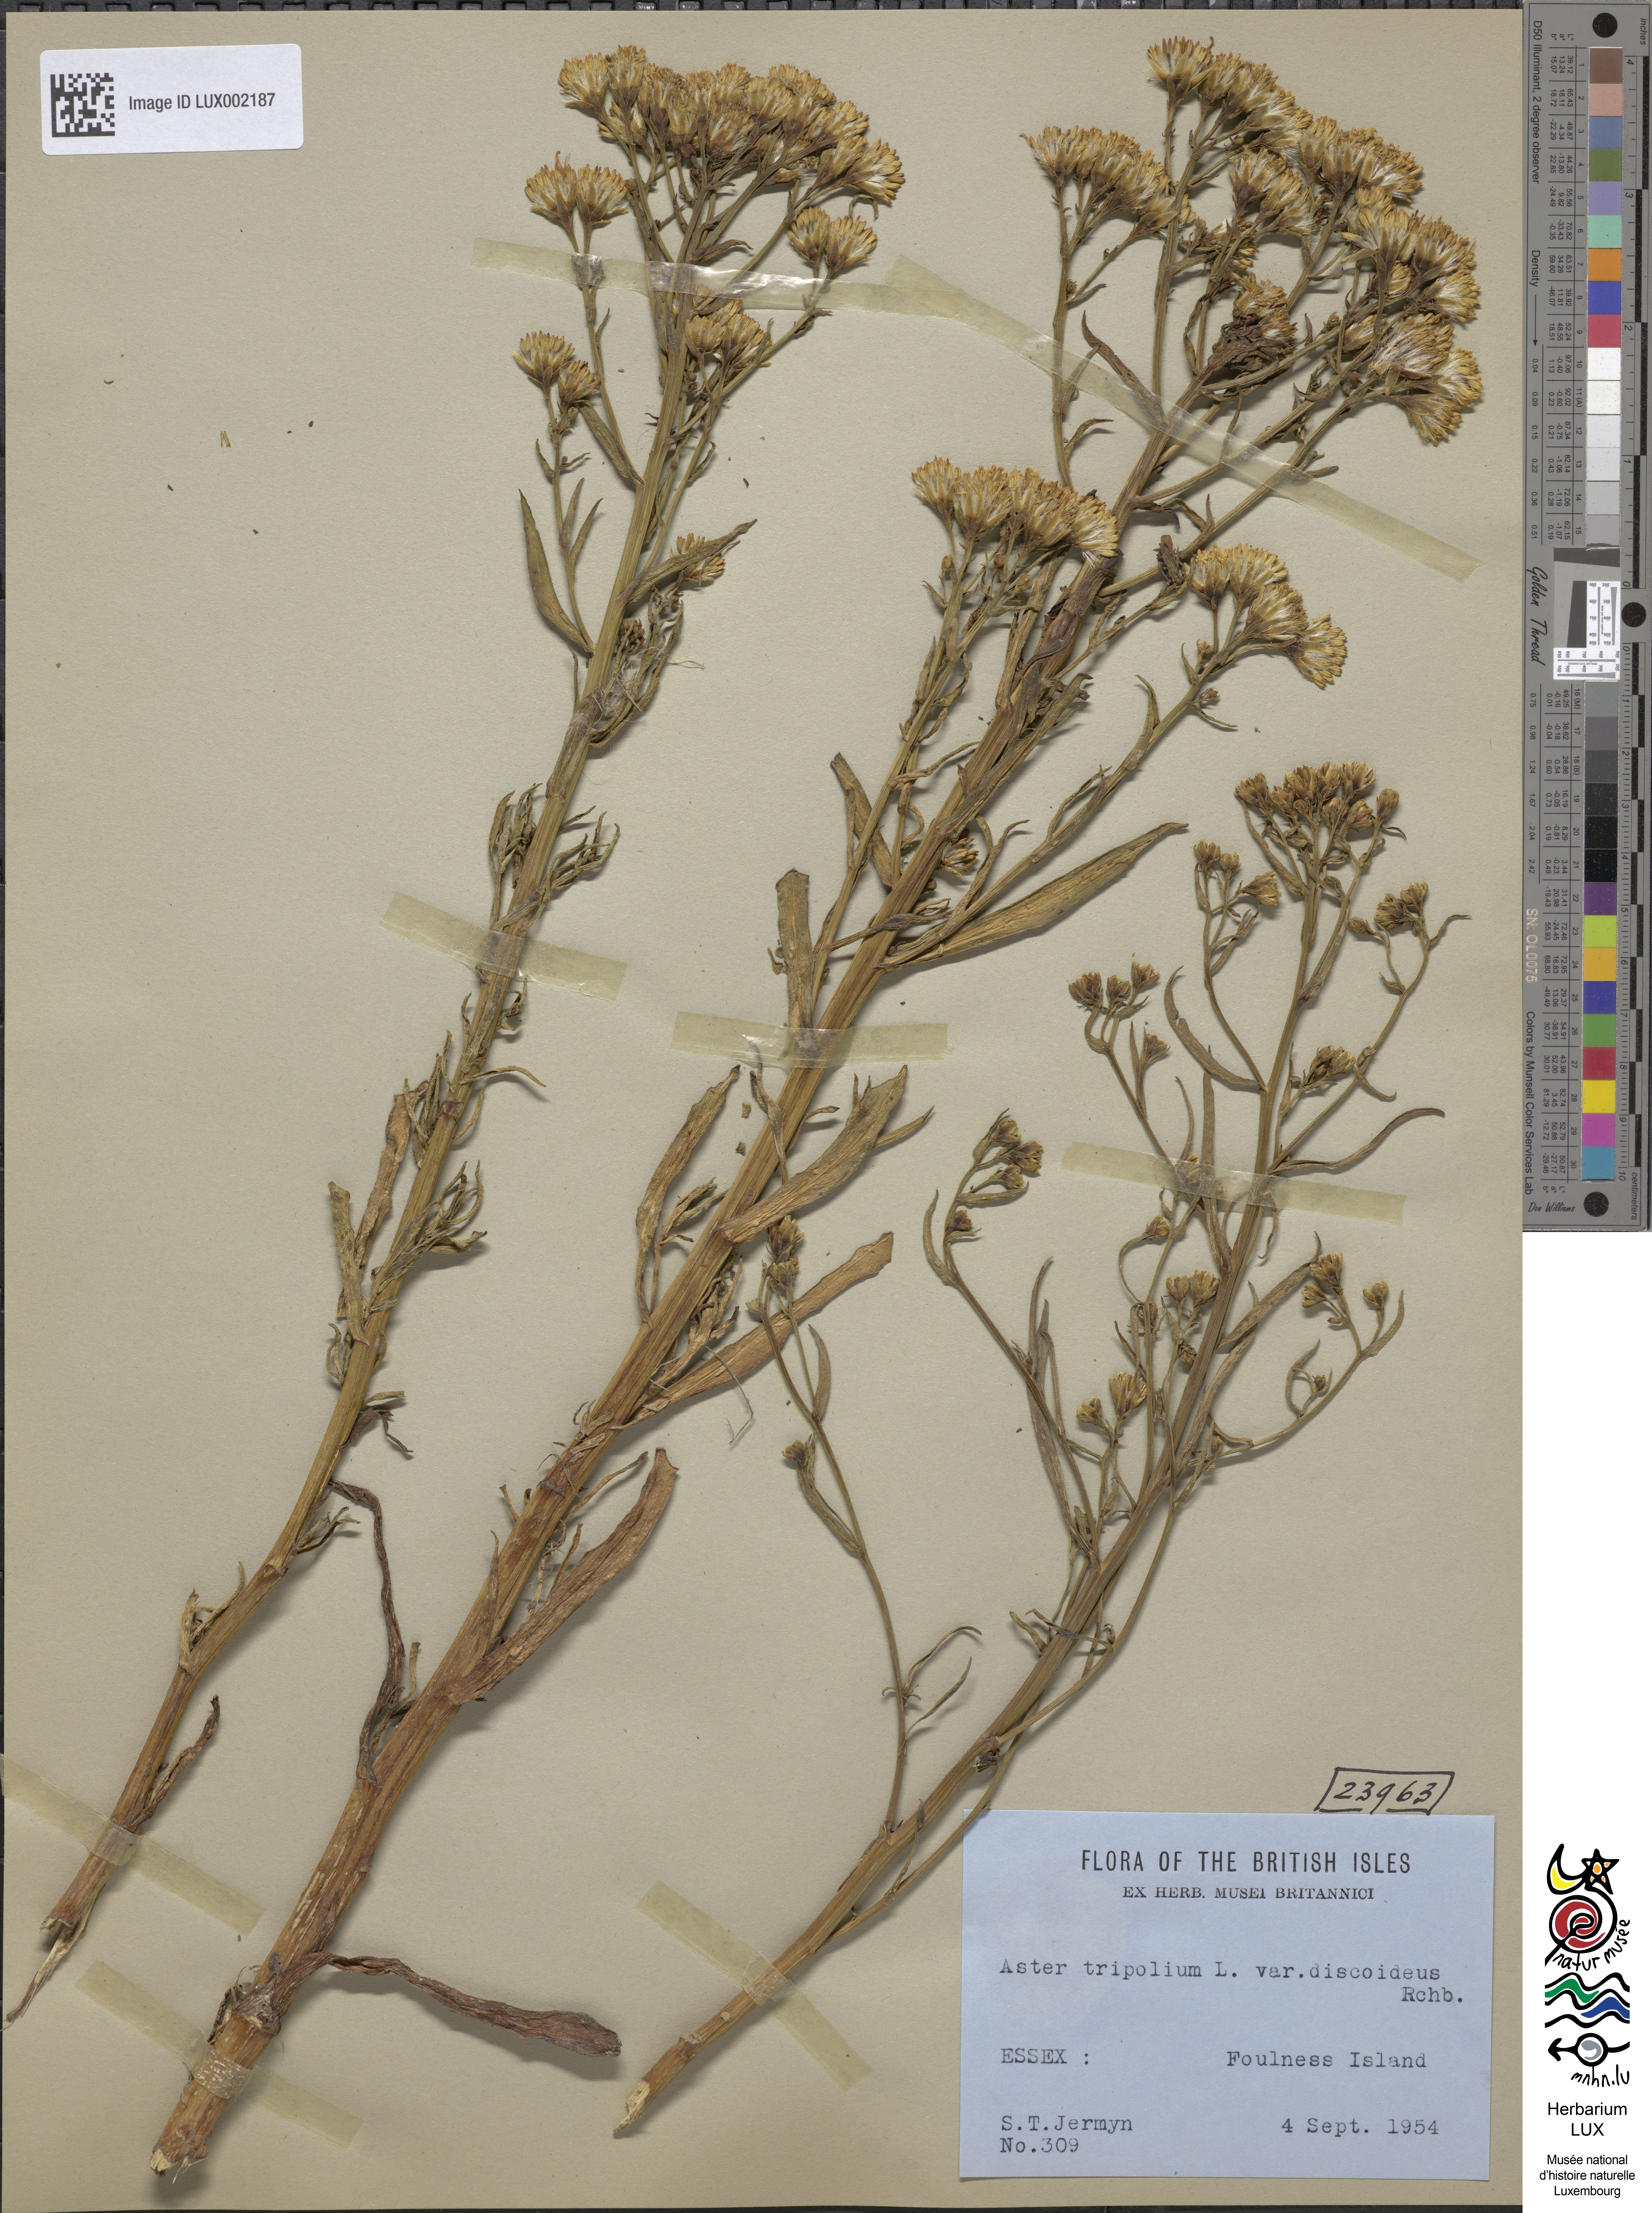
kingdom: Plantae
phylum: Tracheophyta
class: Magnoliopsida
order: Asterales
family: Asteraceae
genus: Tripolium
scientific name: Tripolium pannonicum
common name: Sea aster
